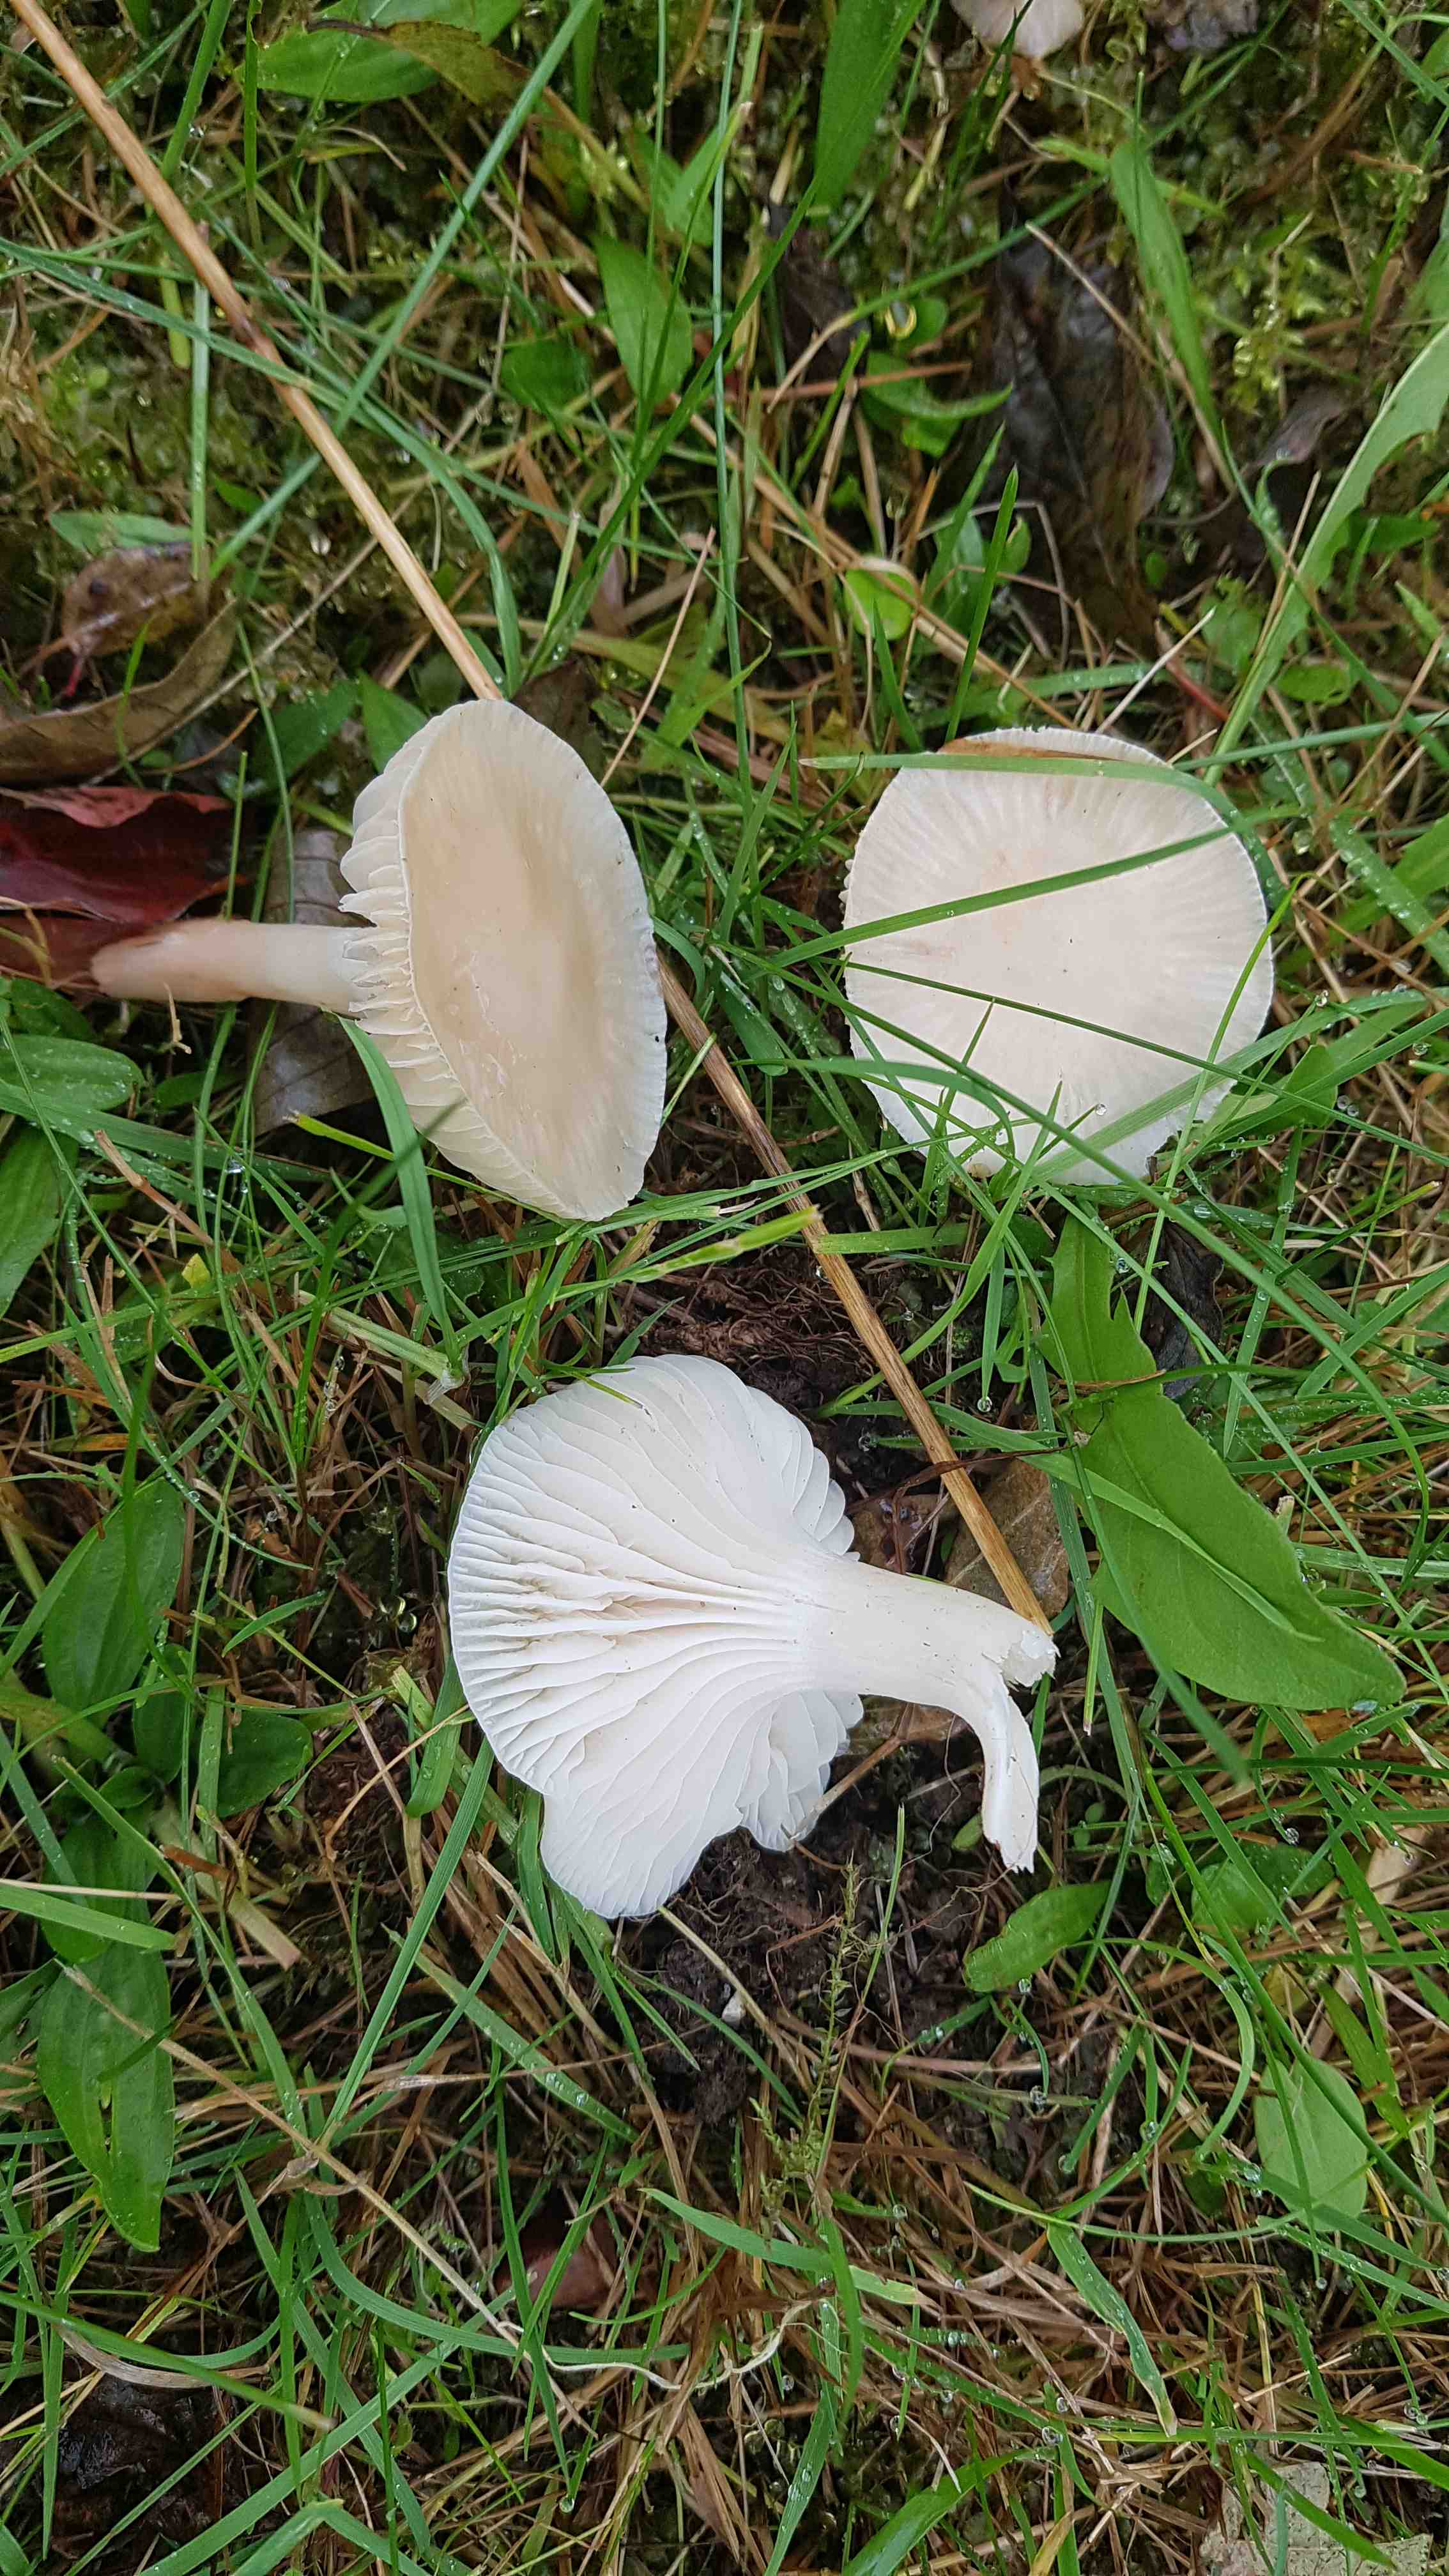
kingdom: Fungi
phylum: Basidiomycota
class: Agaricomycetes
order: Agaricales
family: Hygrophoraceae
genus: Cuphophyllus
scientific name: Cuphophyllus virgineus
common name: snehvid vokshat
